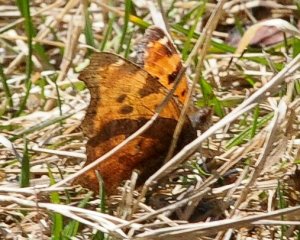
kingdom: Animalia
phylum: Arthropoda
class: Insecta
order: Lepidoptera
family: Nymphalidae
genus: Polygonia
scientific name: Polygonia comma
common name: Eastern Comma
